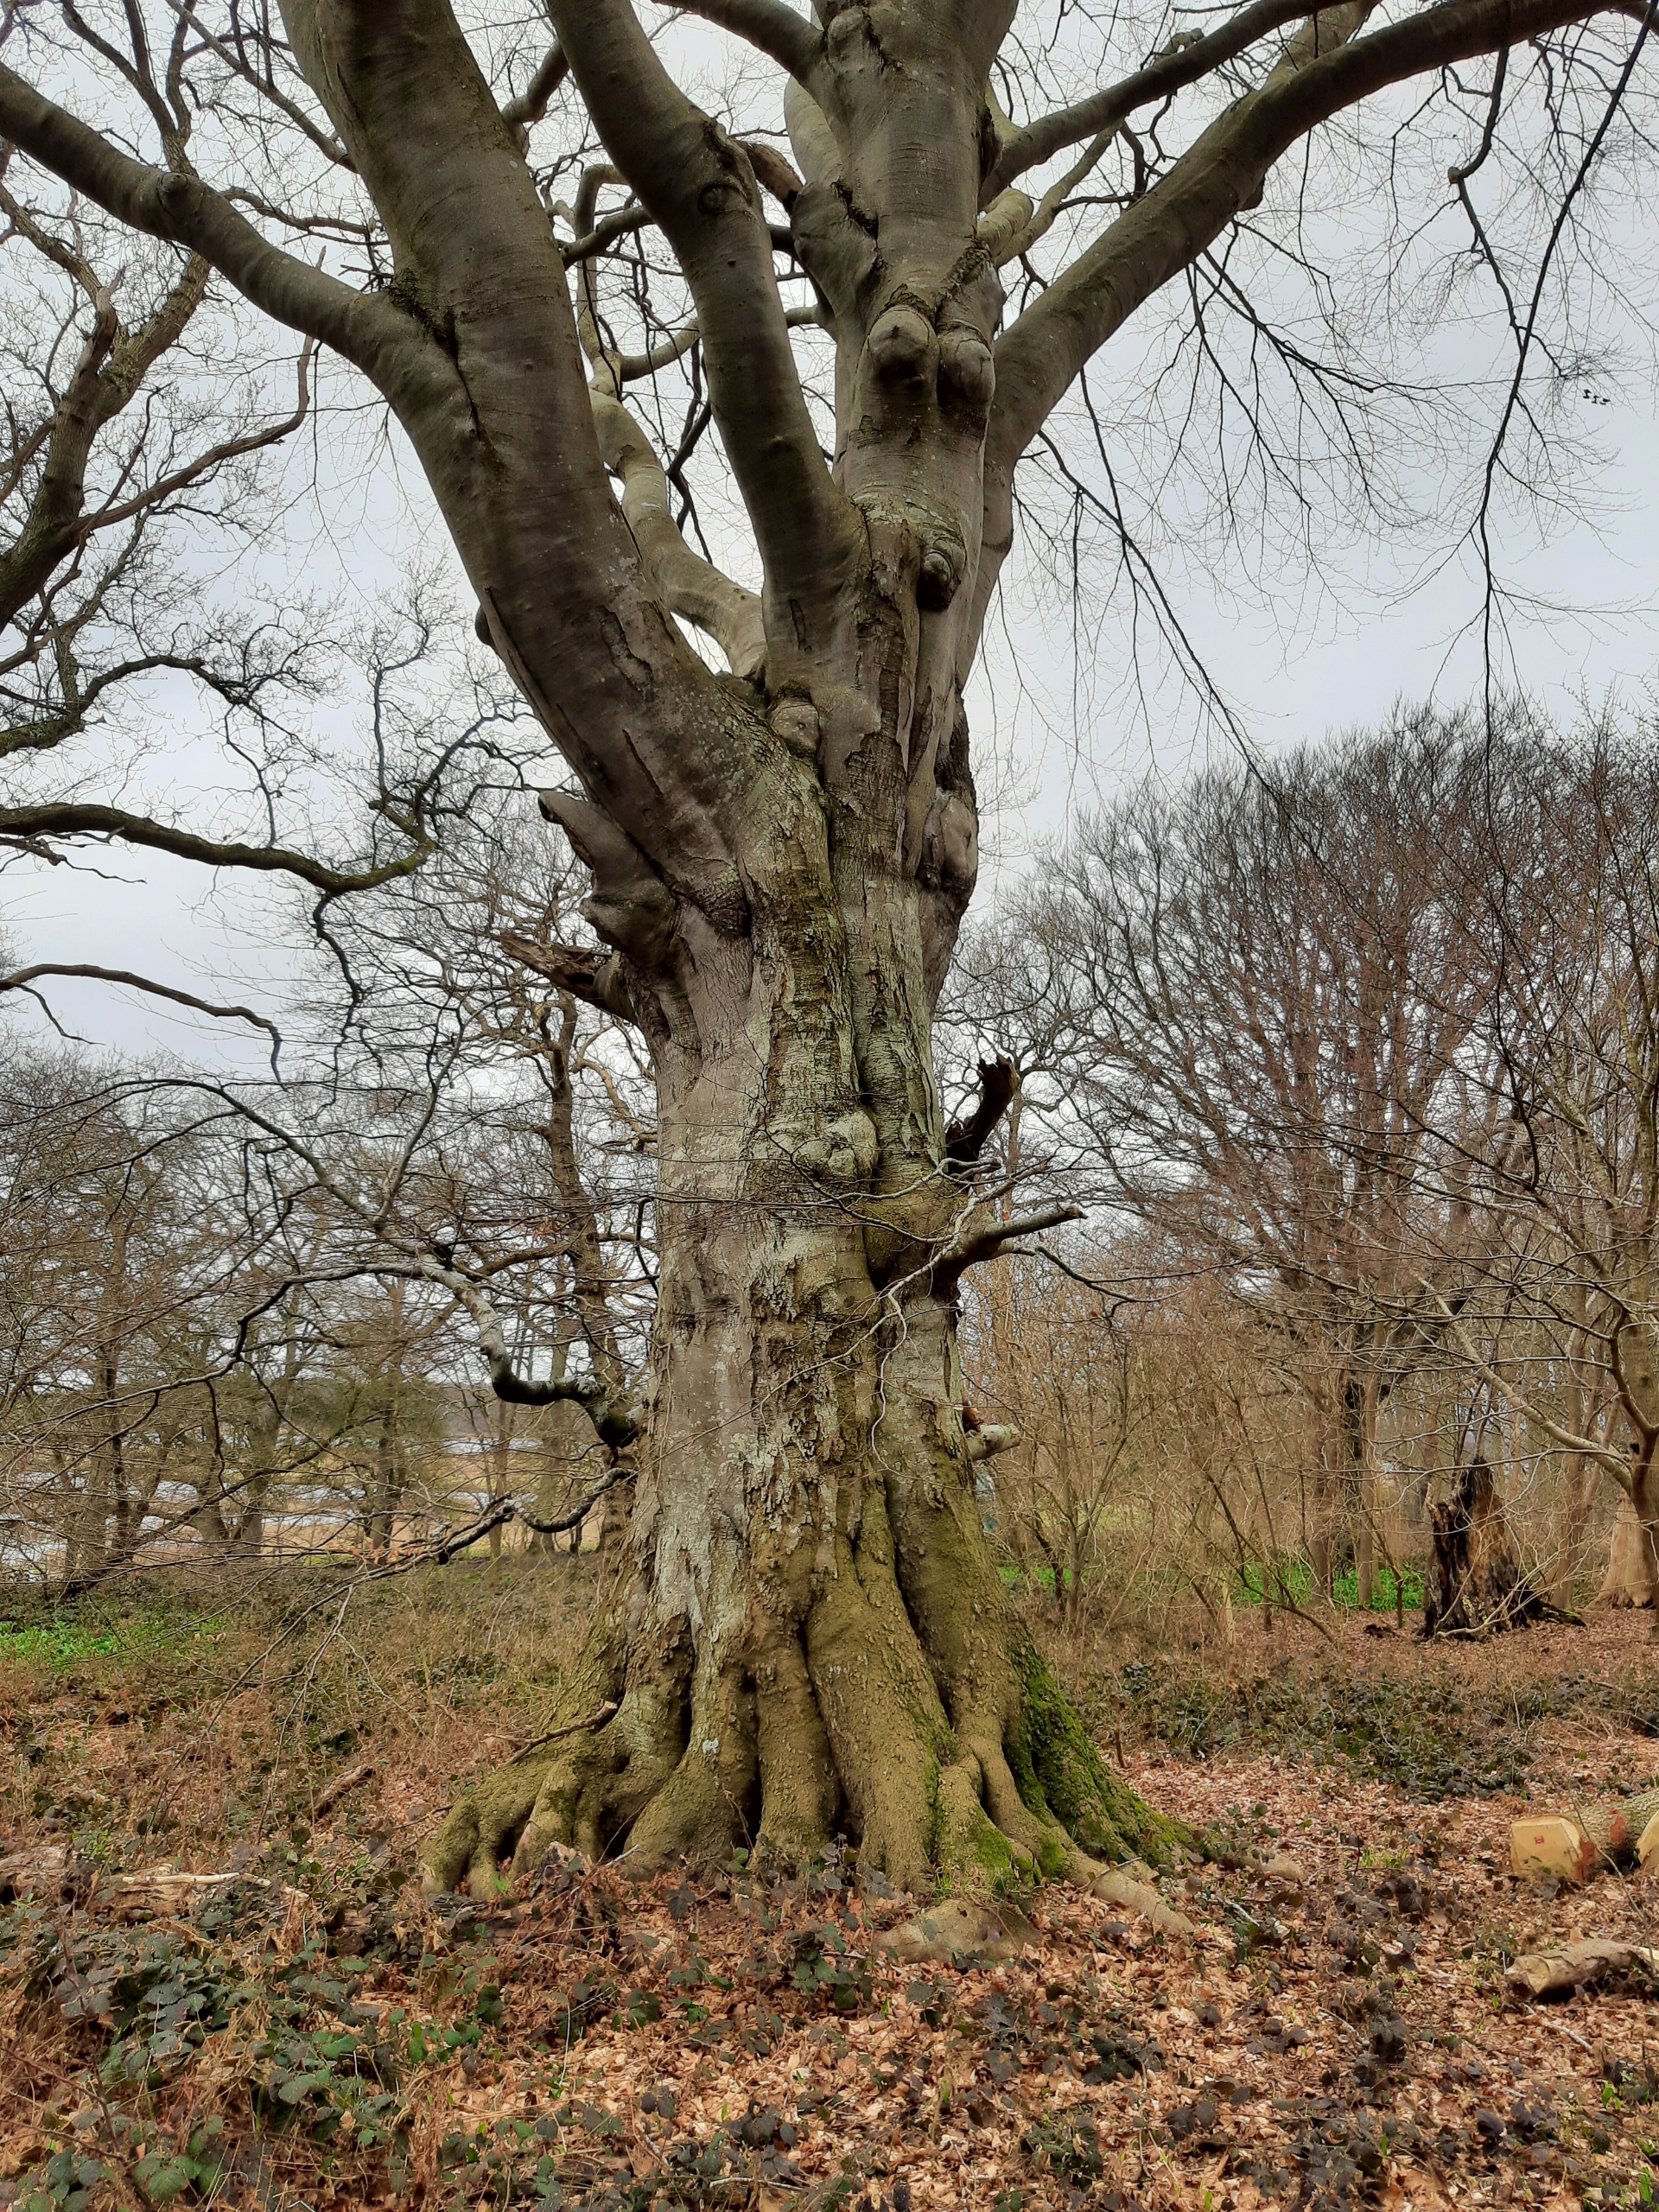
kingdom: Plantae
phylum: Tracheophyta
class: Magnoliopsida
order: Fagales
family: Fagaceae
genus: Fagus
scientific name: Fagus sylvatica
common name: Bøg
